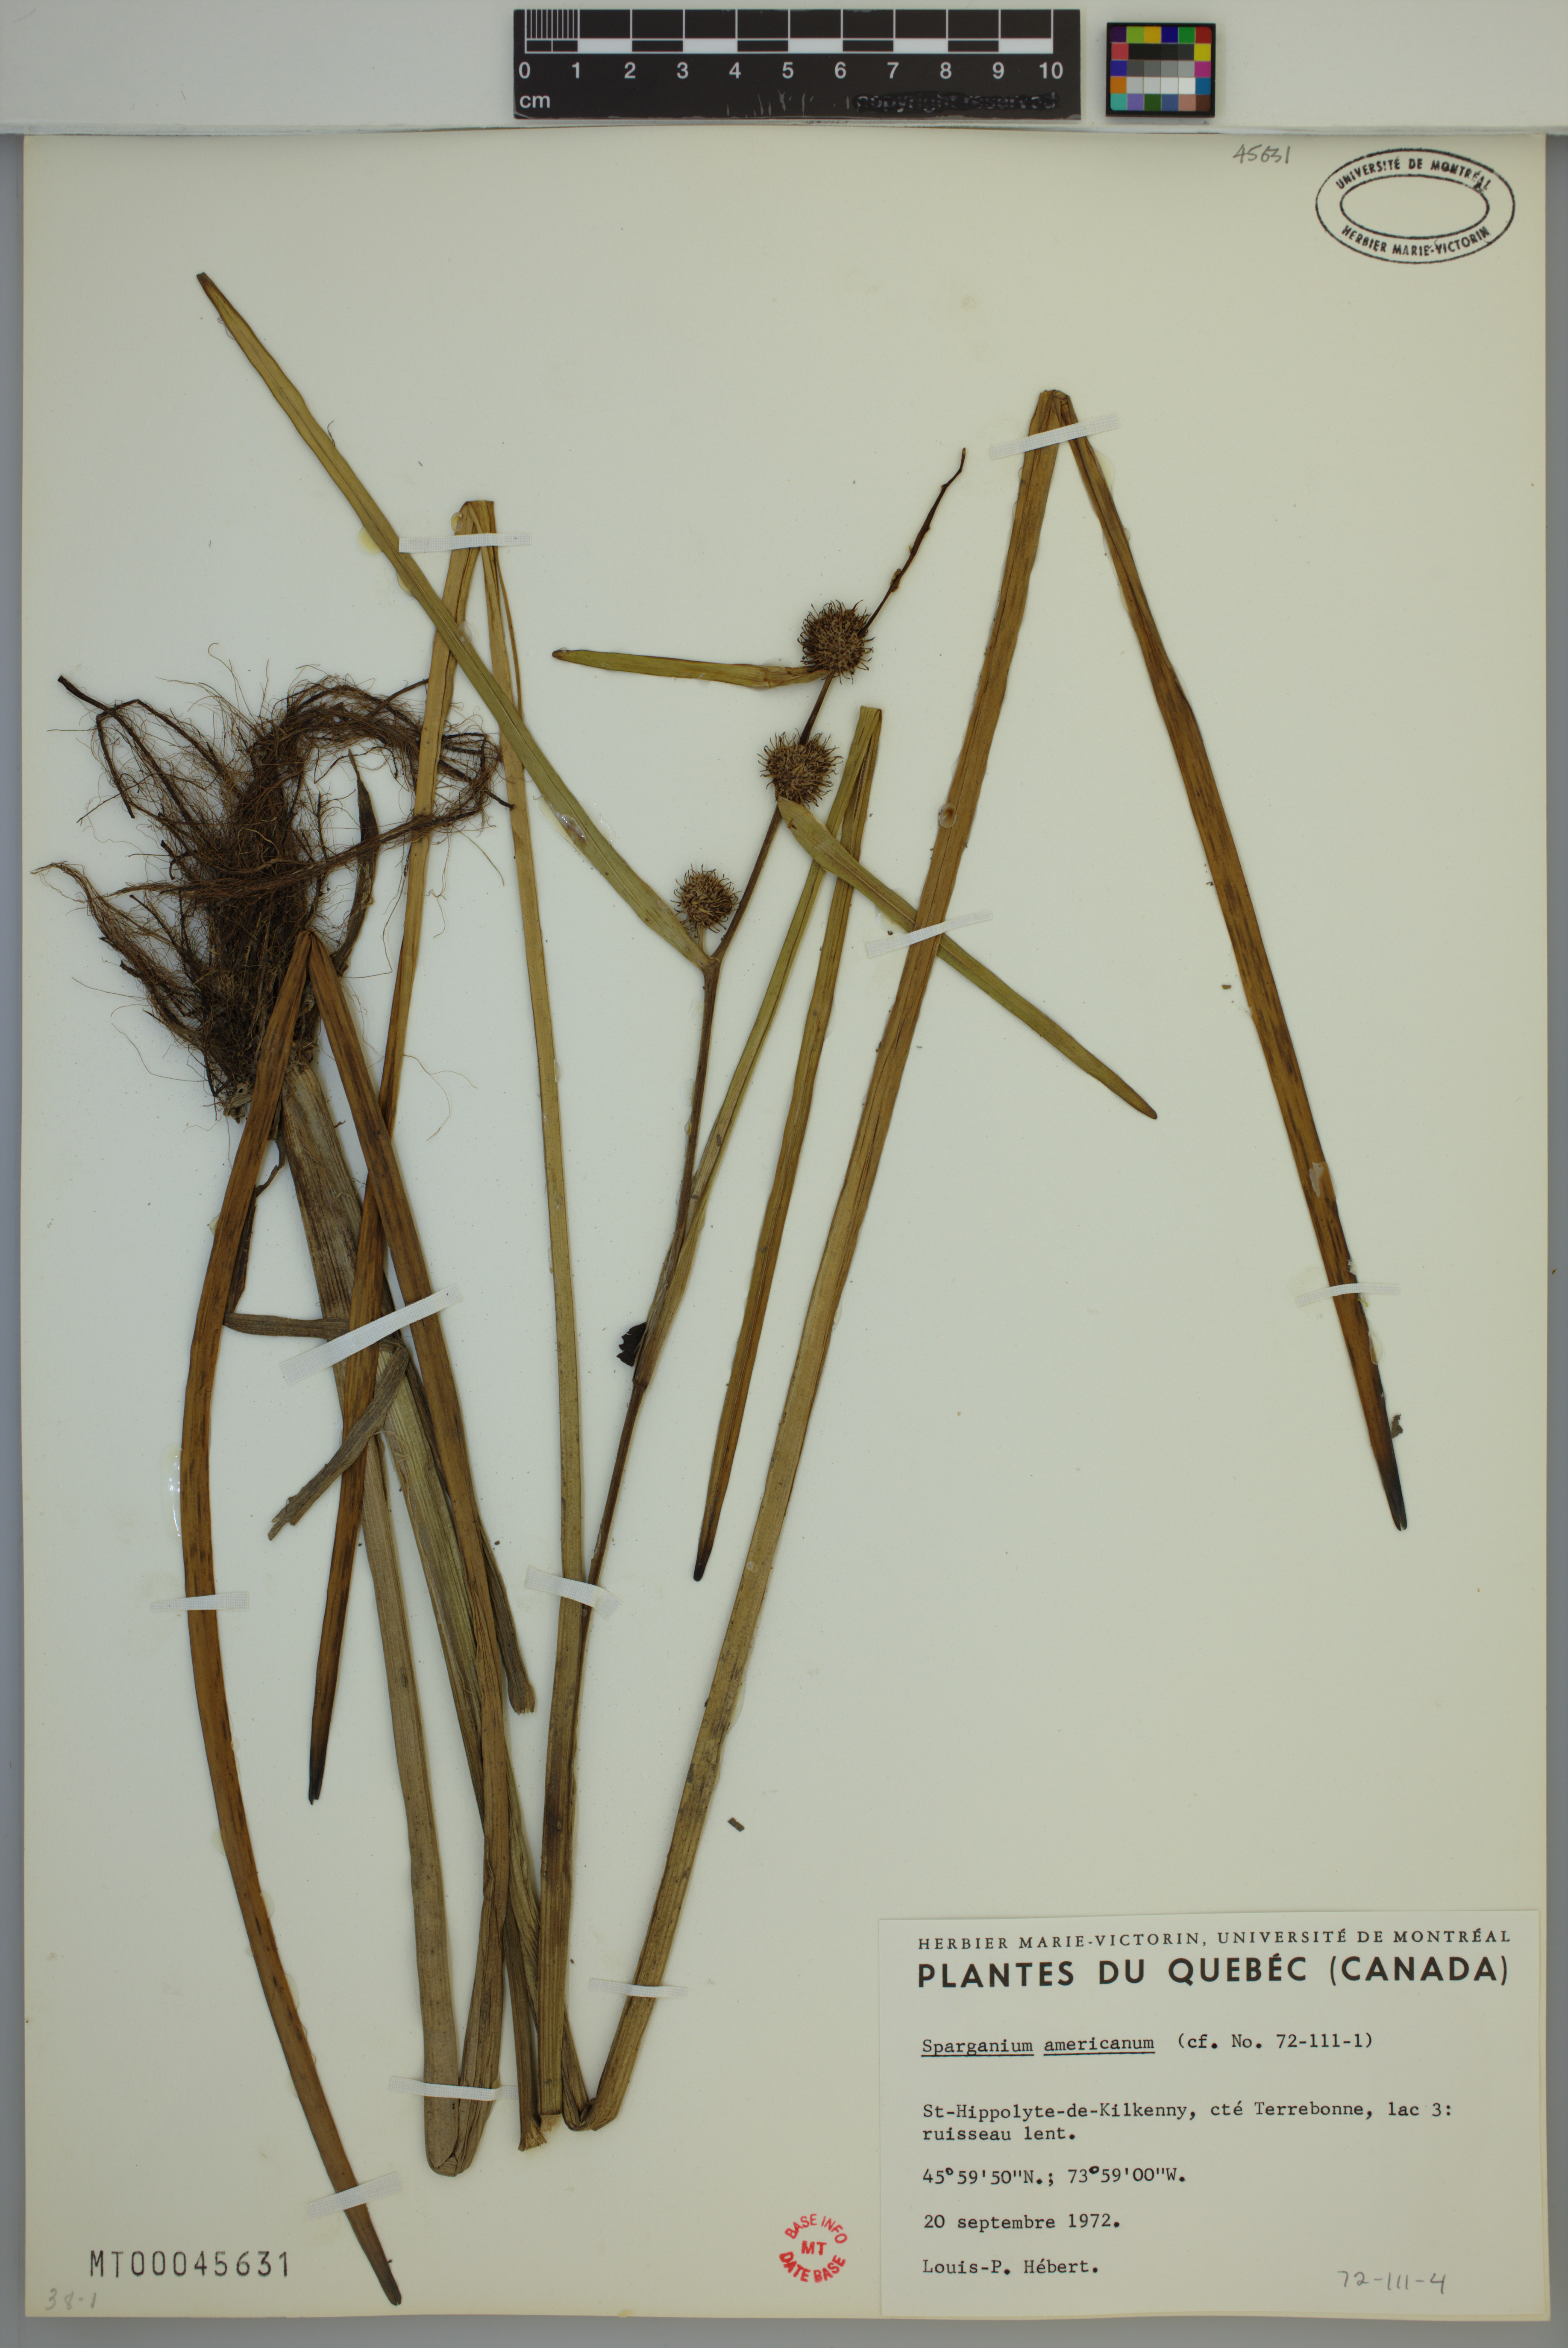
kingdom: Plantae
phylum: Tracheophyta
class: Liliopsida
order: Poales
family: Typhaceae
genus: Sparganium
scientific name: Sparganium americanum
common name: American burreed
